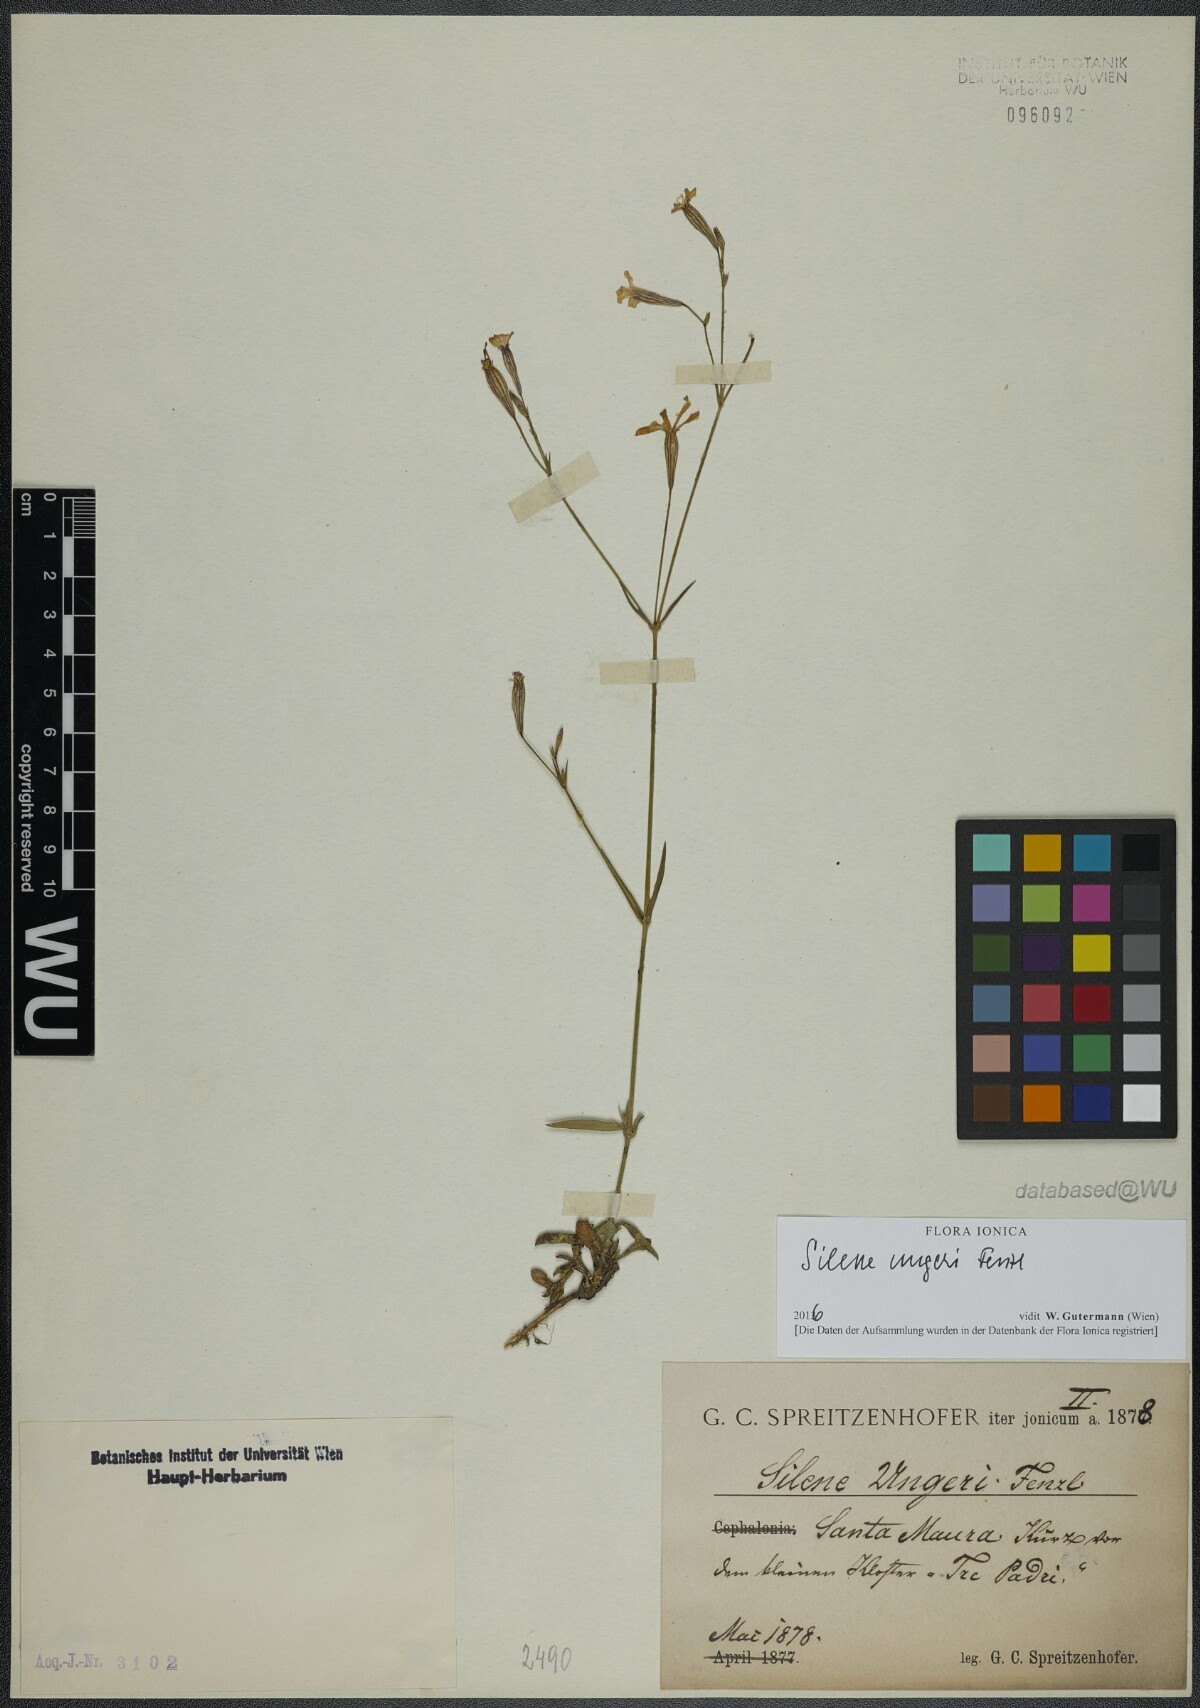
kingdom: Plantae
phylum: Tracheophyta
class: Magnoliopsida
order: Caryophyllales
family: Caryophyllaceae
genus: Silene
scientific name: Silene ungeri
